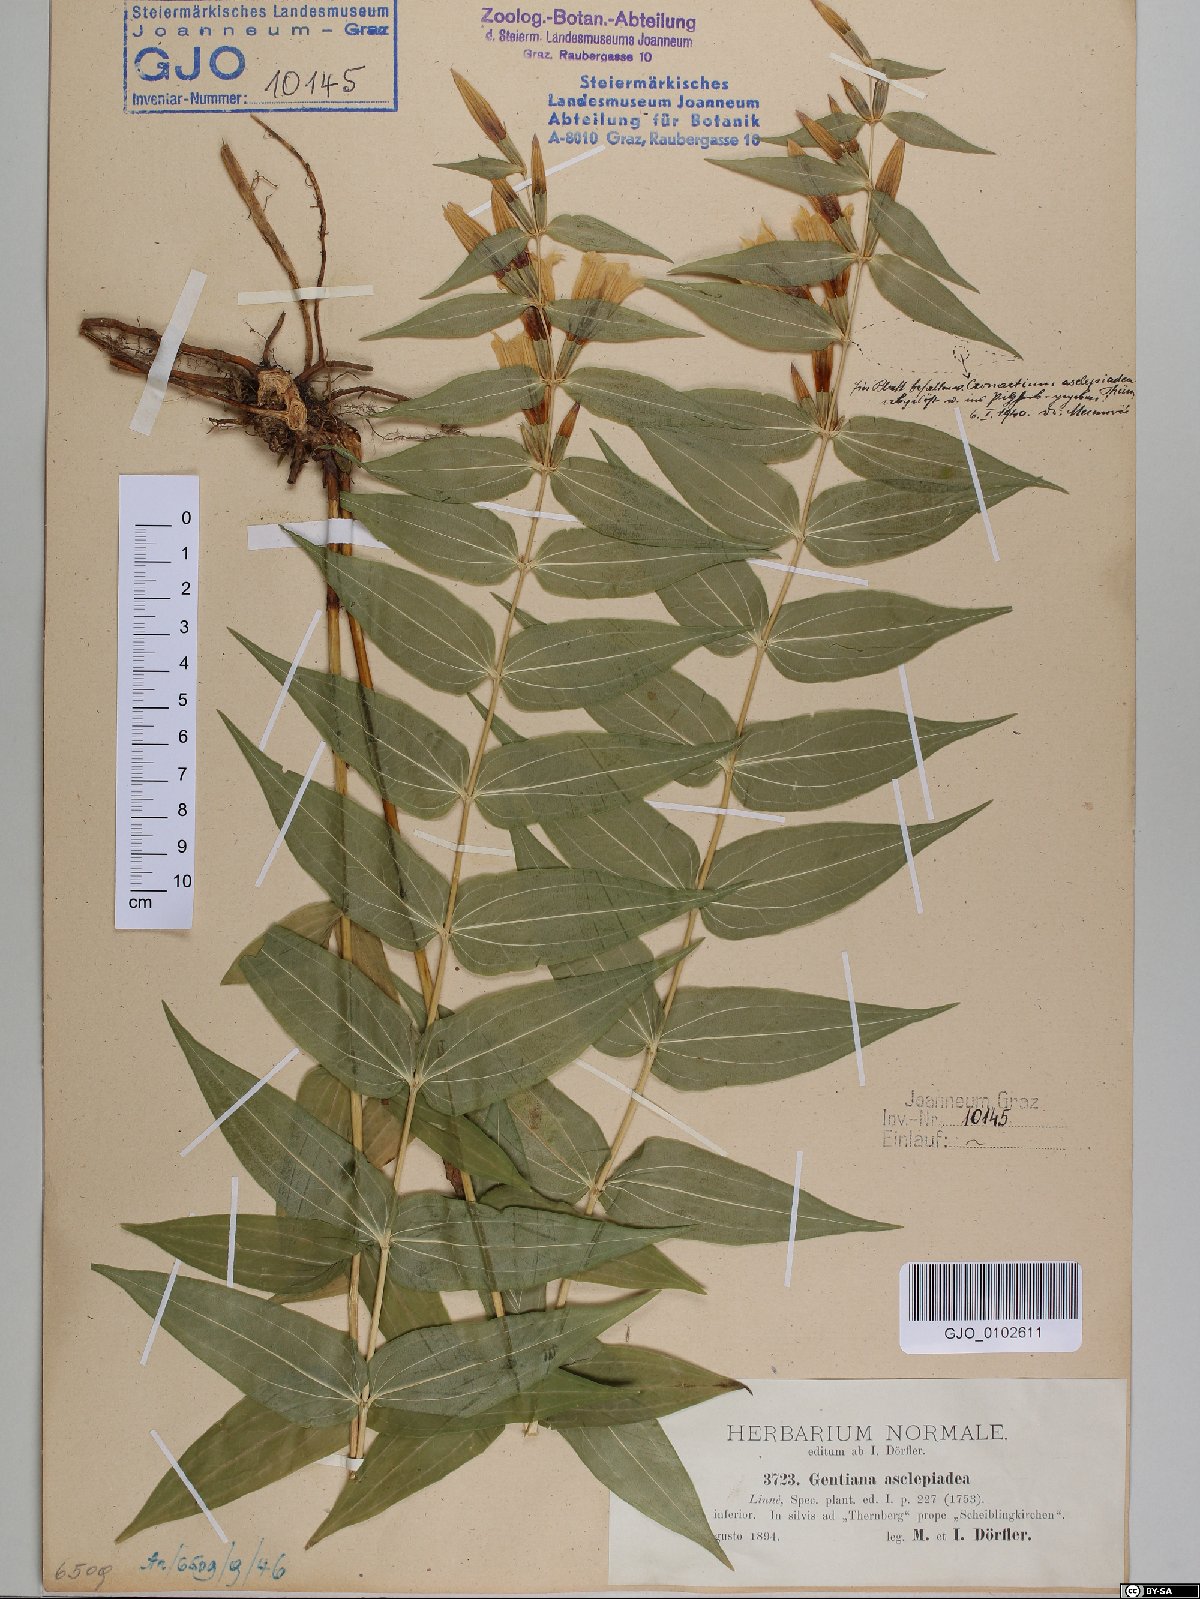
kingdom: Plantae
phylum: Tracheophyta
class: Magnoliopsida
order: Gentianales
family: Gentianaceae
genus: Gentiana
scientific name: Gentiana asclepiadea
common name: Willow gentian
